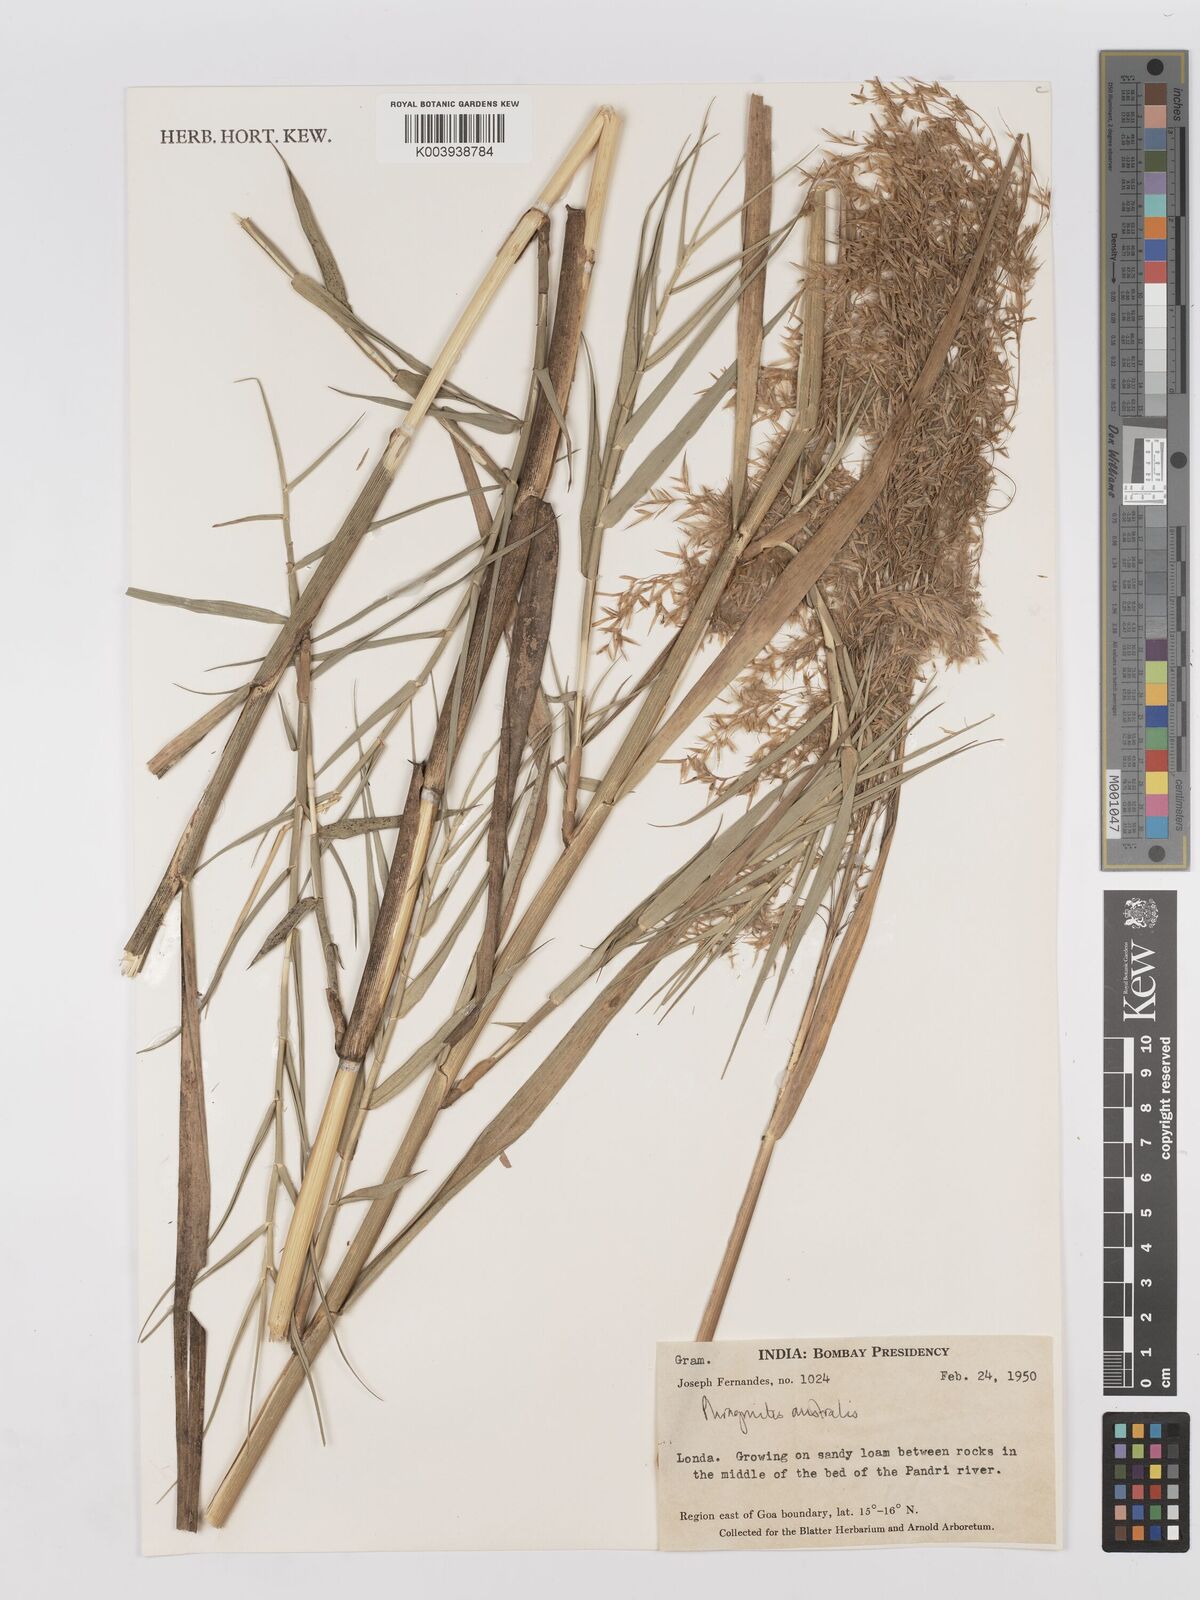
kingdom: Plantae
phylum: Tracheophyta
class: Liliopsida
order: Poales
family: Poaceae
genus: Phragmites
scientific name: Phragmites australis
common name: Common reed
